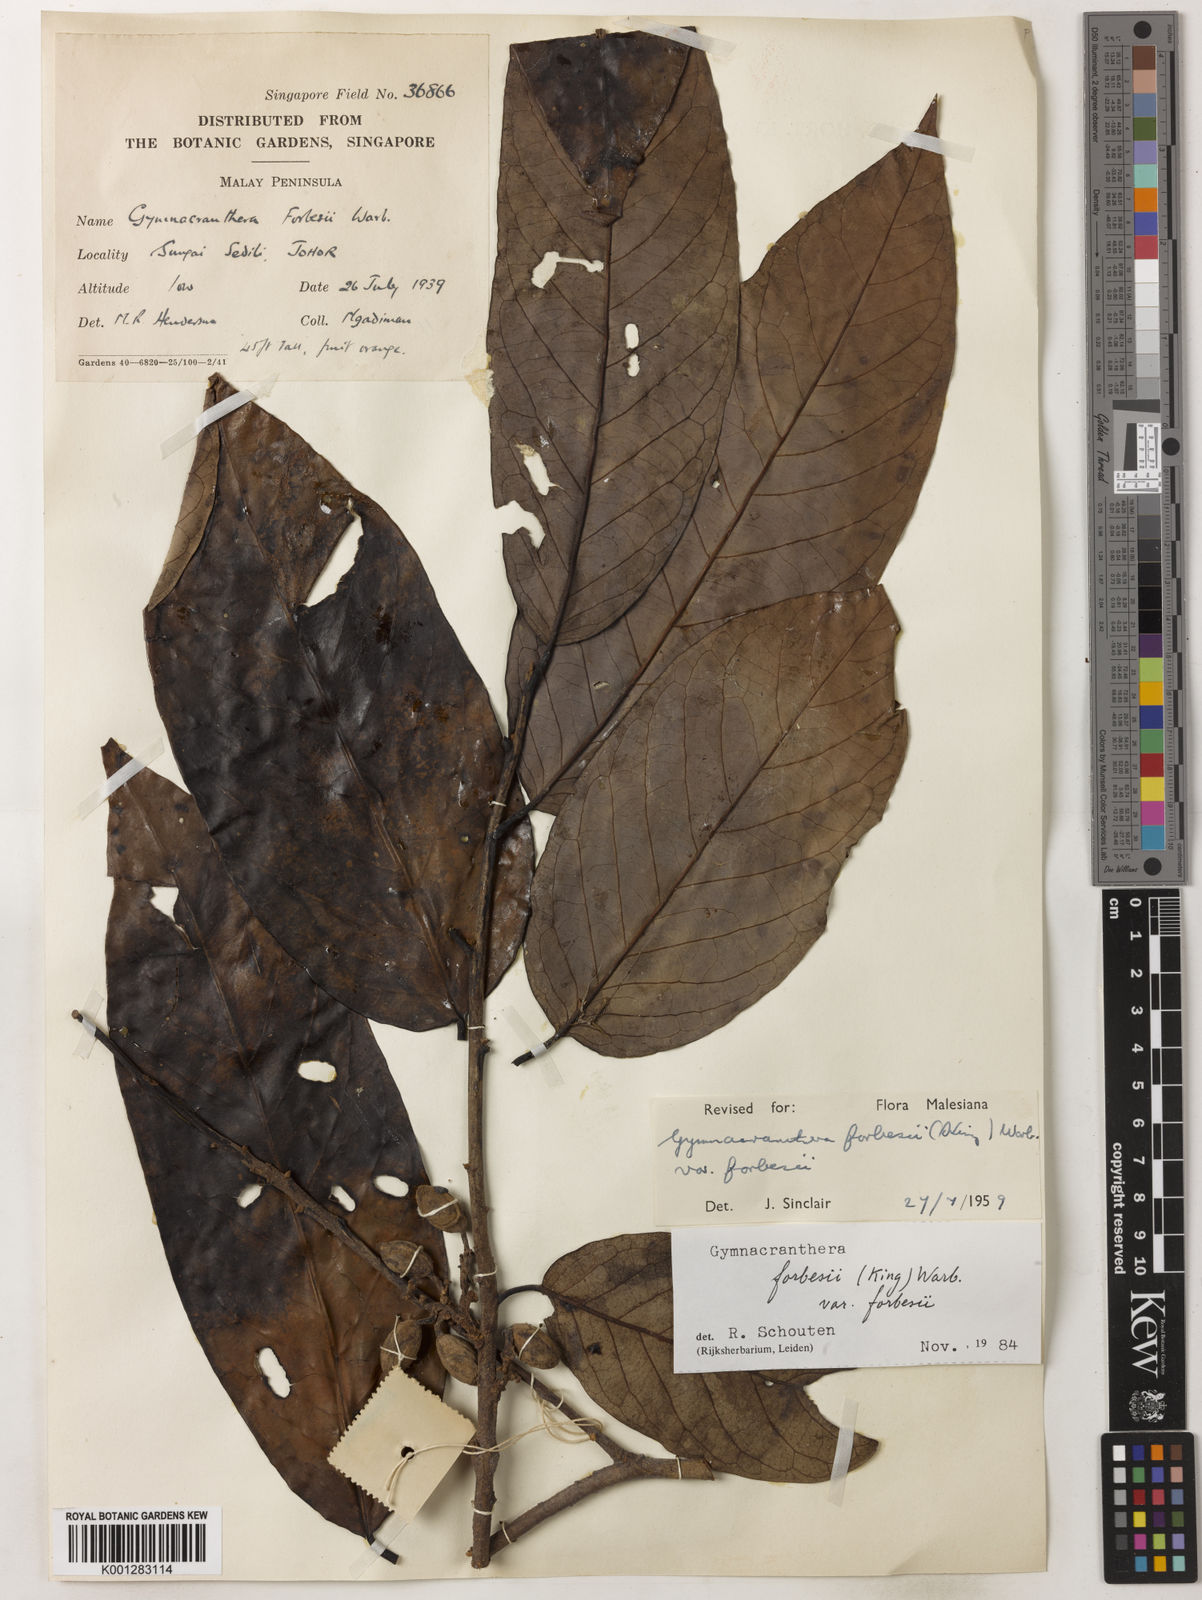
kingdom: Plantae
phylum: Tracheophyta
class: Magnoliopsida
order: Magnoliales
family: Myristicaceae
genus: Gymnacranthera
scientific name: Gymnacranthera forbesii
